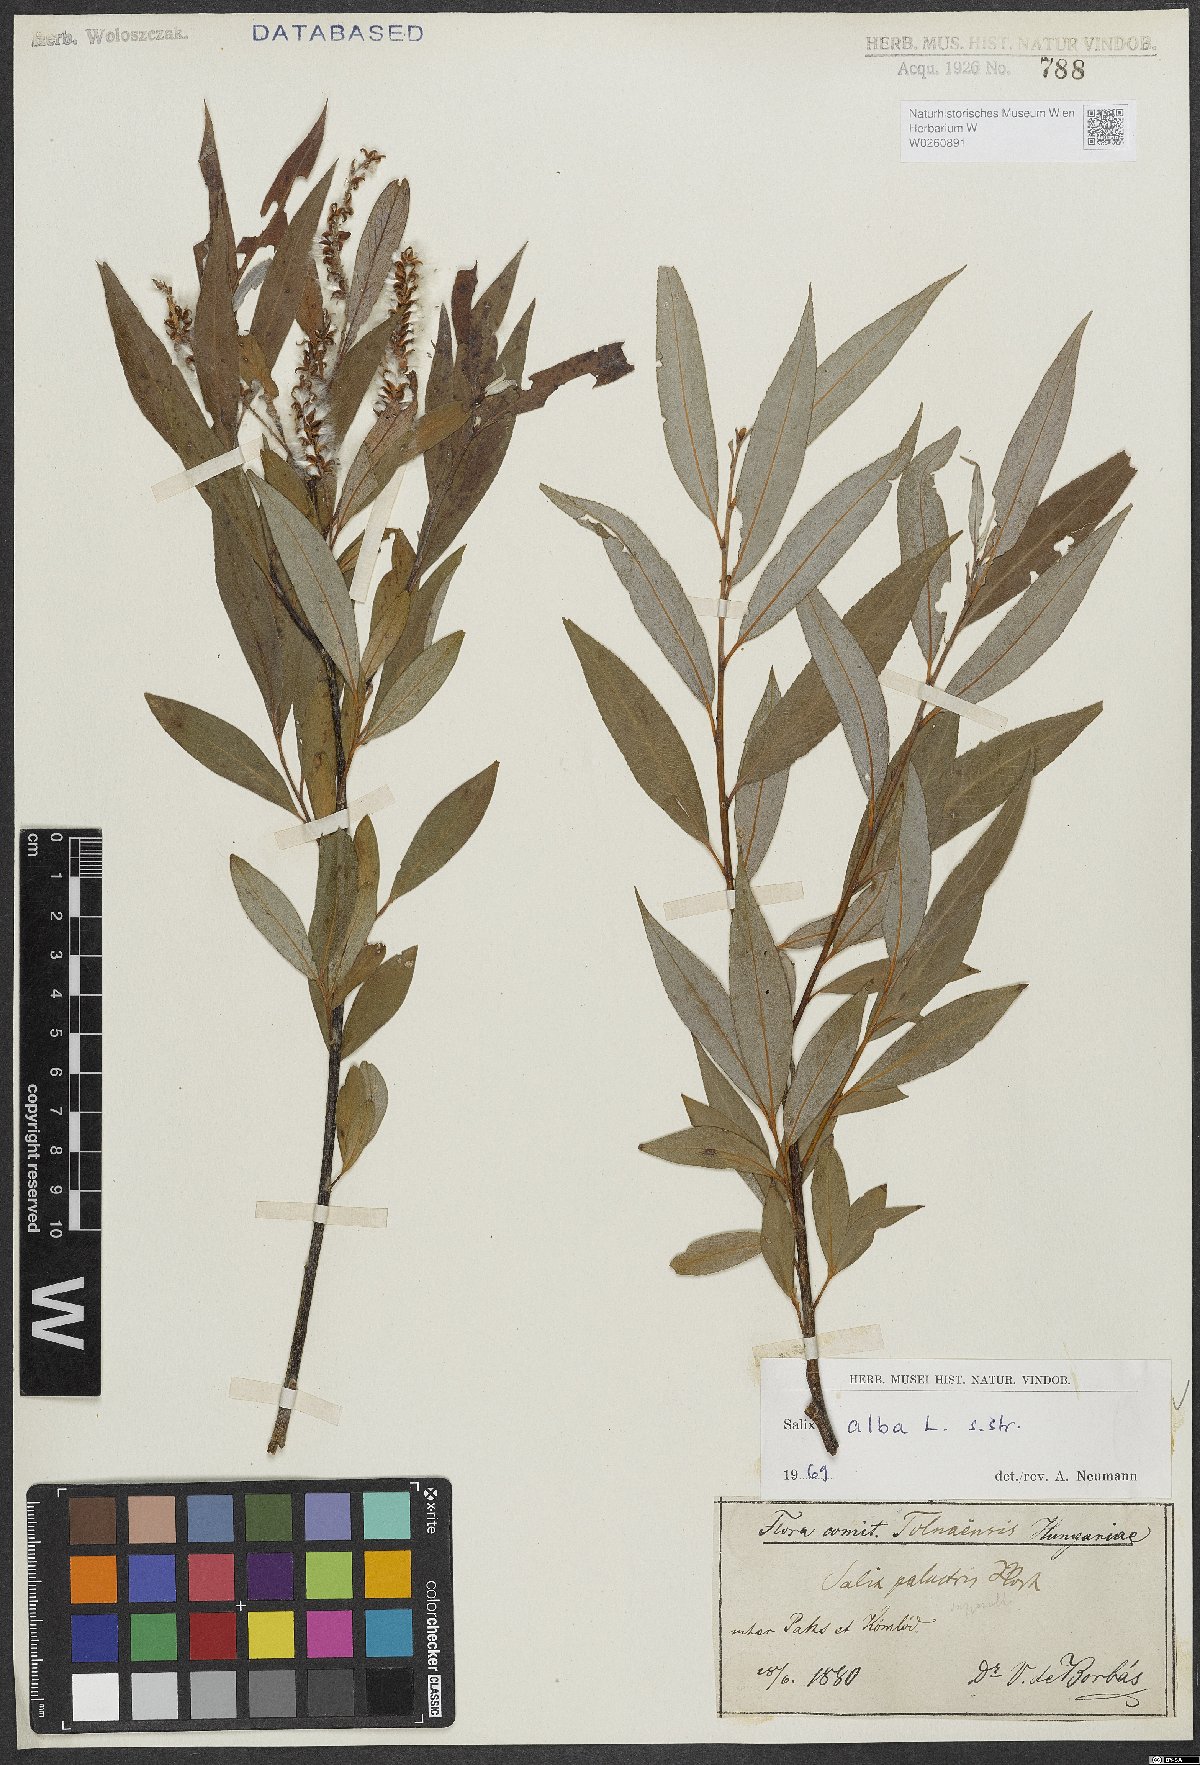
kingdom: Plantae
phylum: Tracheophyta
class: Magnoliopsida
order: Malpighiales
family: Salicaceae
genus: Salix
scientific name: Salix alba
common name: White willow
